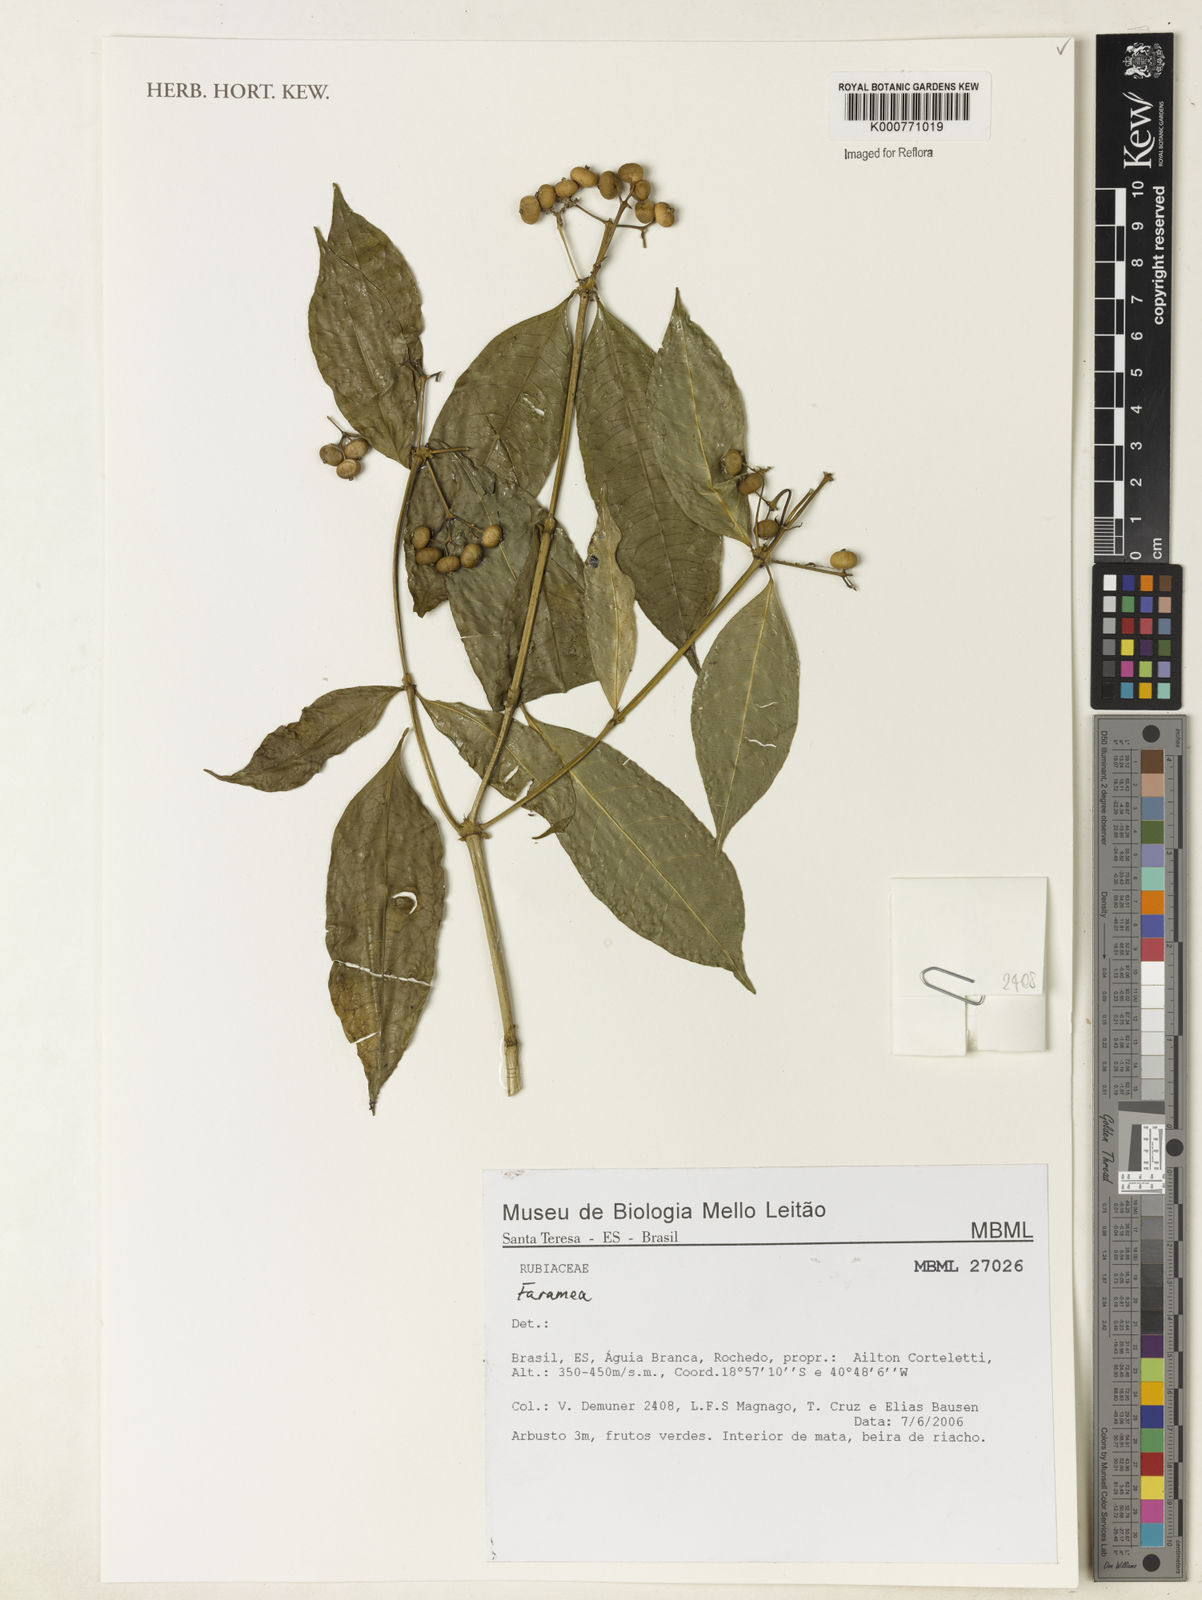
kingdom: Plantae
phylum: Tracheophyta
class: Magnoliopsida
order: Gentianales
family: Rubiaceae
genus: Faramea
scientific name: Faramea
